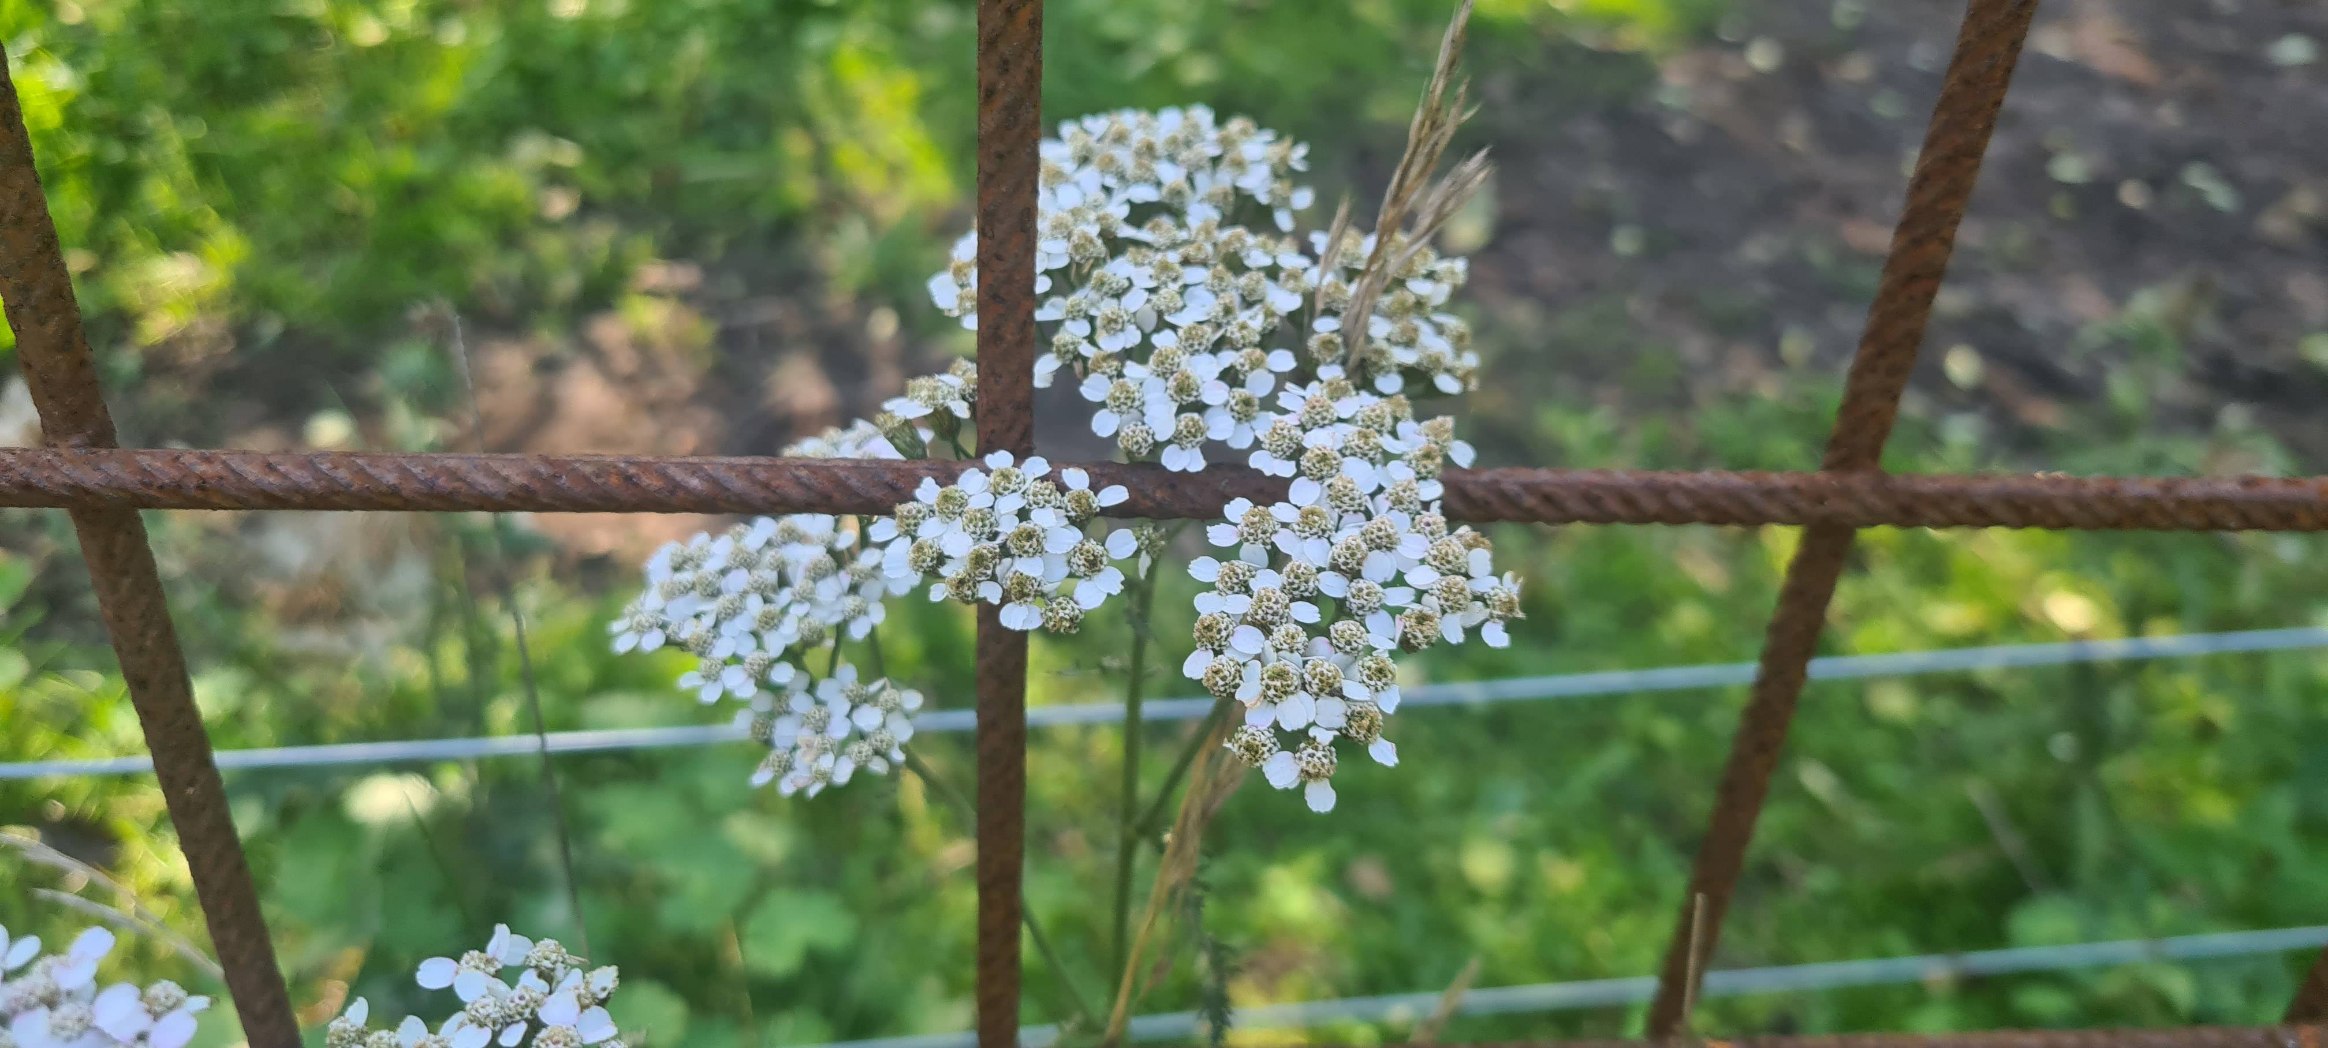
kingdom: Plantae
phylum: Tracheophyta
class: Magnoliopsida
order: Asterales
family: Asteraceae
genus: Achillea
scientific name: Achillea millefolium
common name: Almindelig røllike
